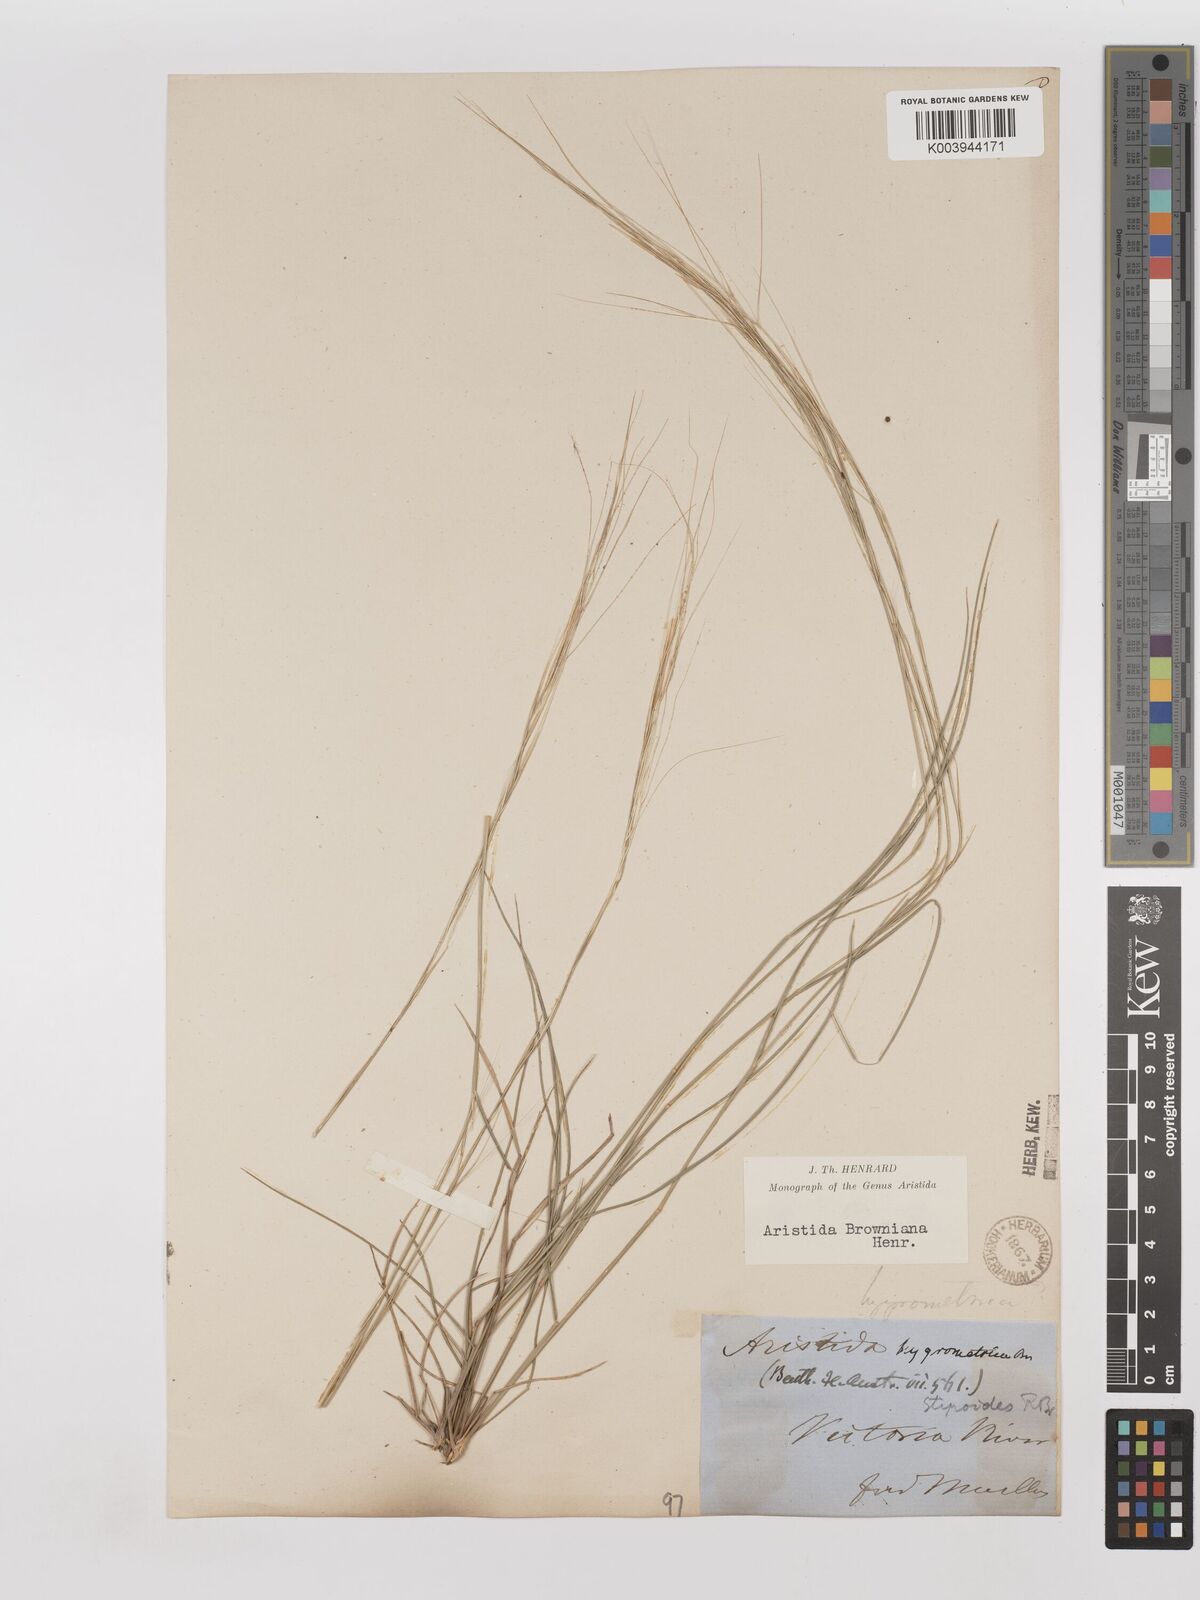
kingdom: Plantae
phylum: Tracheophyta
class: Liliopsida
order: Poales
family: Poaceae
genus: Aristida
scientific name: Aristida holathera
